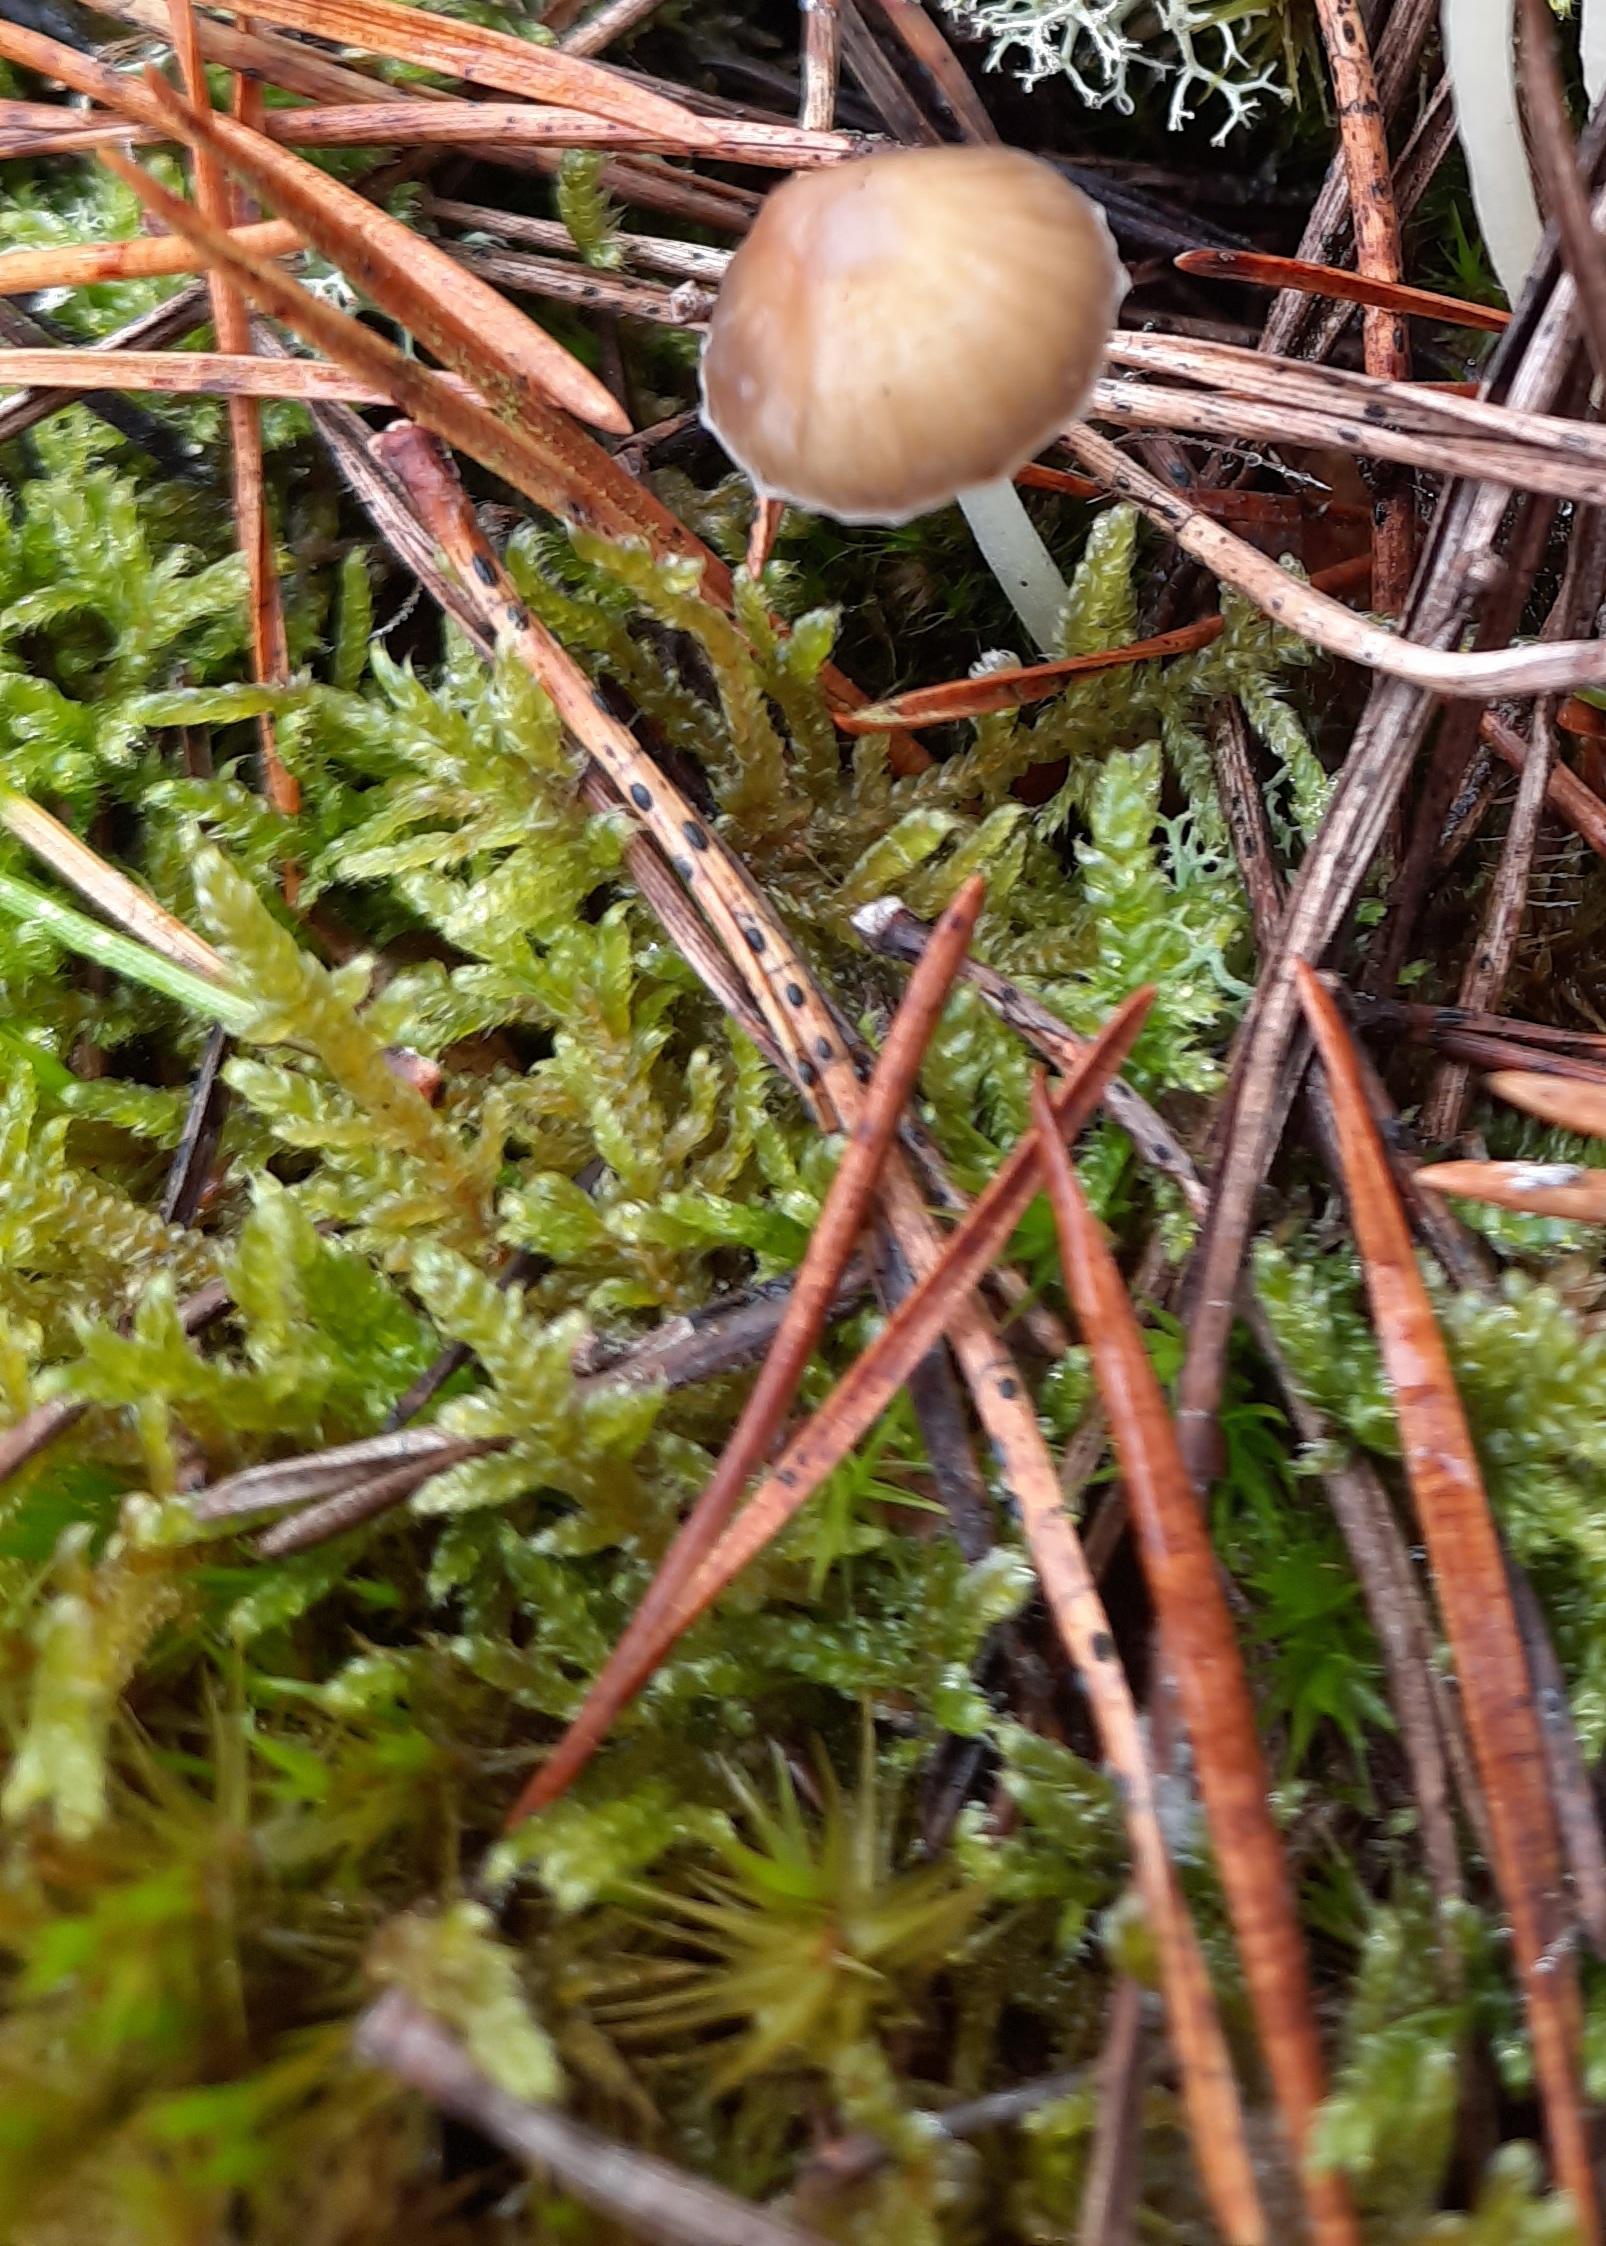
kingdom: Fungi
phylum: Ascomycota
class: Leotiomycetes
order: Rhytismatales
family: Rhytismataceae
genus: Lophodermium
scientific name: Lophodermium pinastri
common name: fyrre-fureplet
